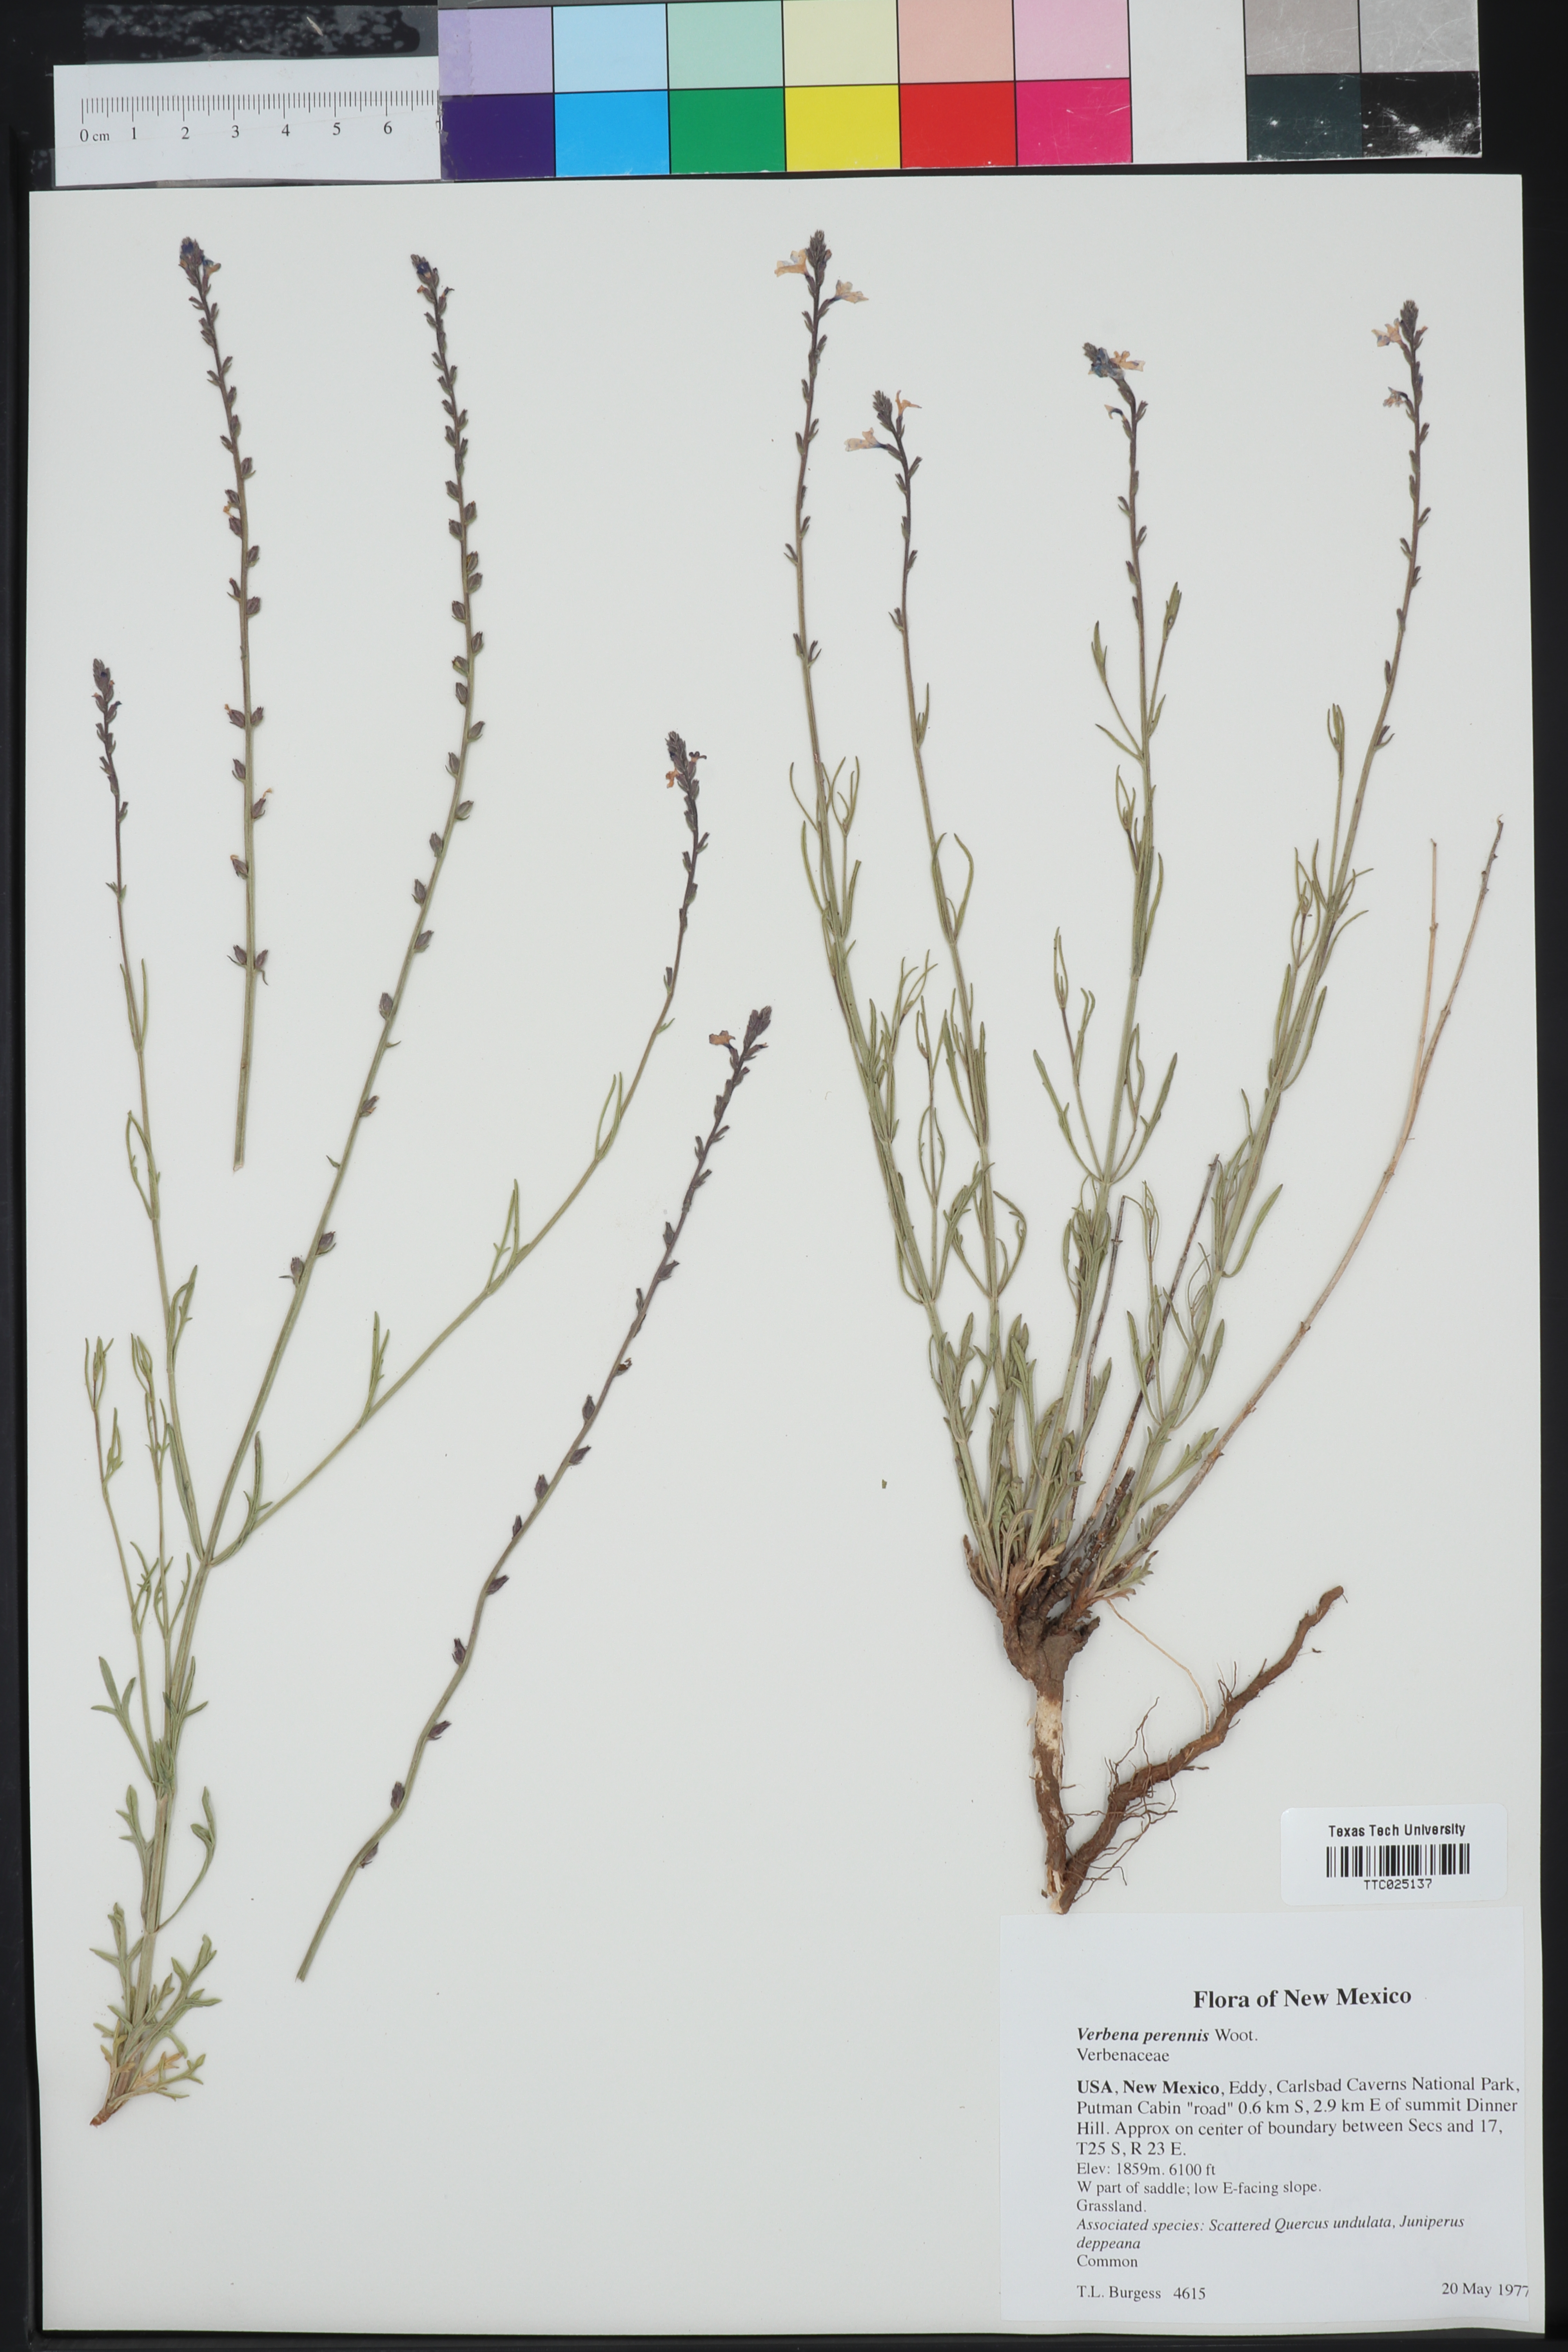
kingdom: Plantae
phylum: Tracheophyta
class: Magnoliopsida
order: Lamiales
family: Verbenaceae
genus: Verbena
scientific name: Verbena perennis
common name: Pin-leaf vervain
